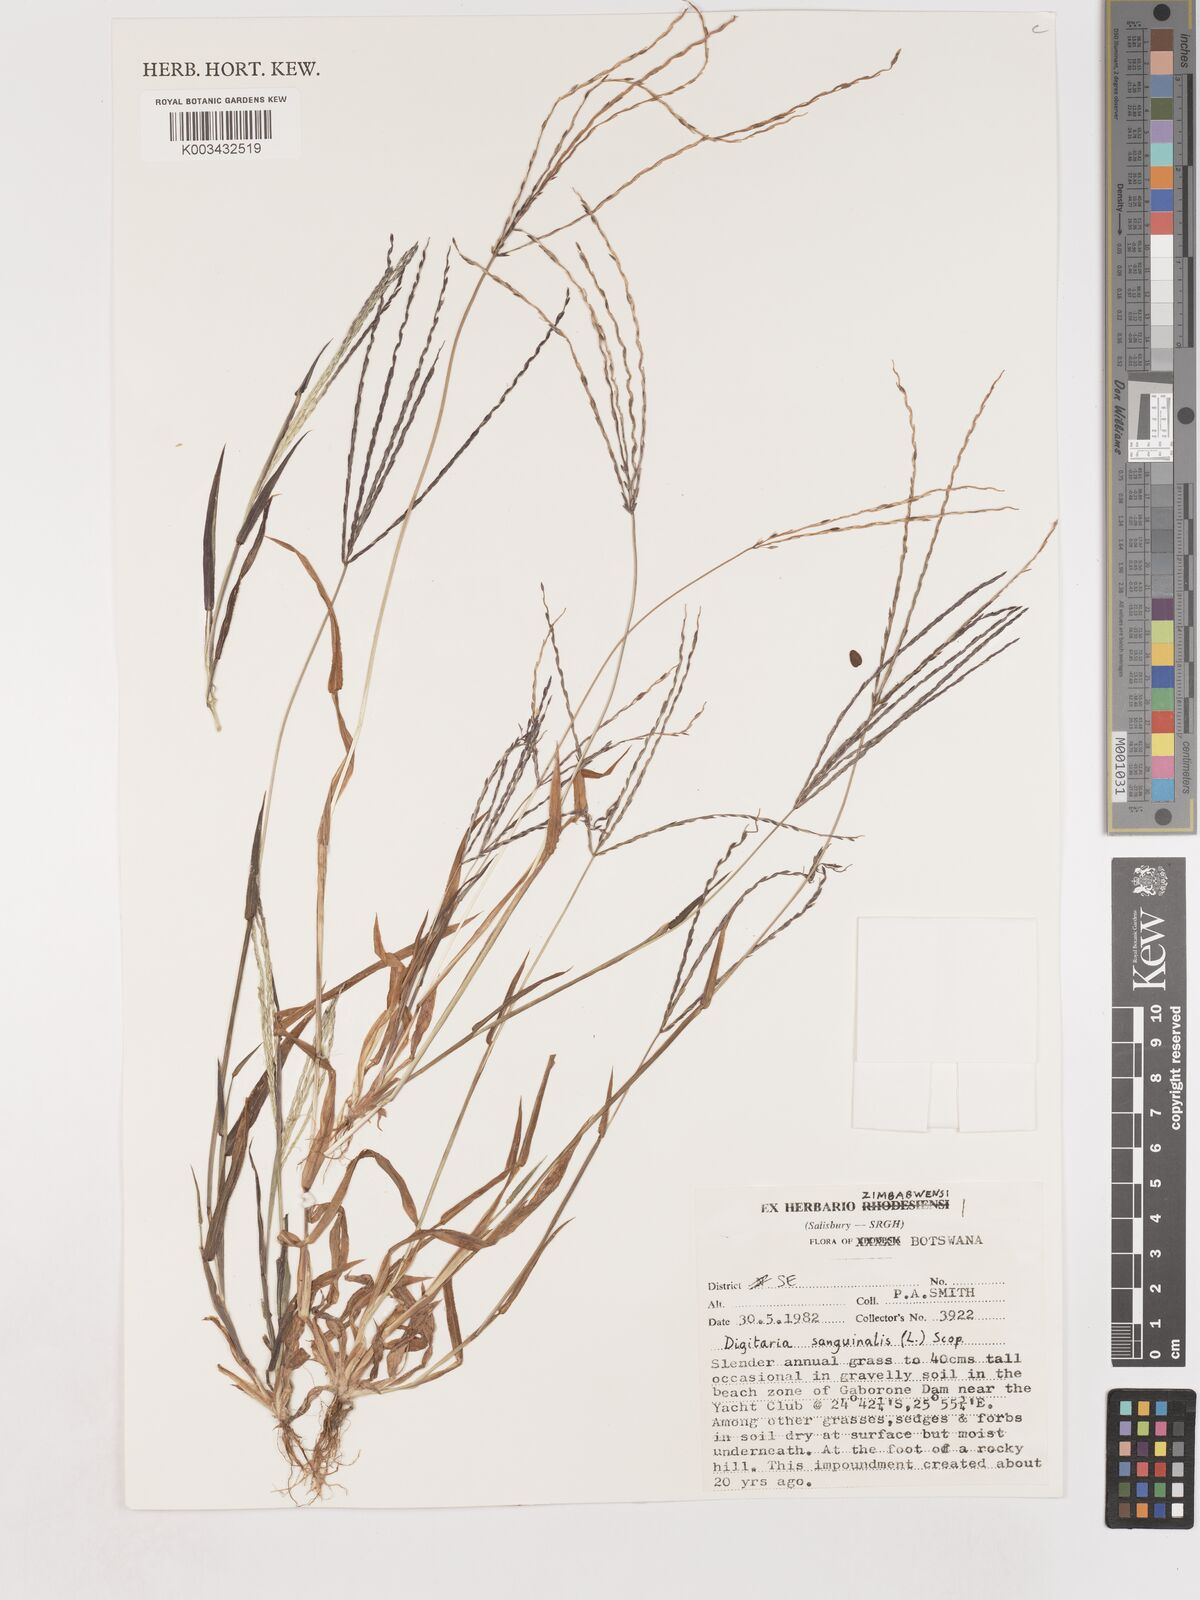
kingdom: Plantae
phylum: Tracheophyta
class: Liliopsida
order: Poales
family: Poaceae
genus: Digitaria
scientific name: Digitaria sanguinalis
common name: Hairy crabgrass
